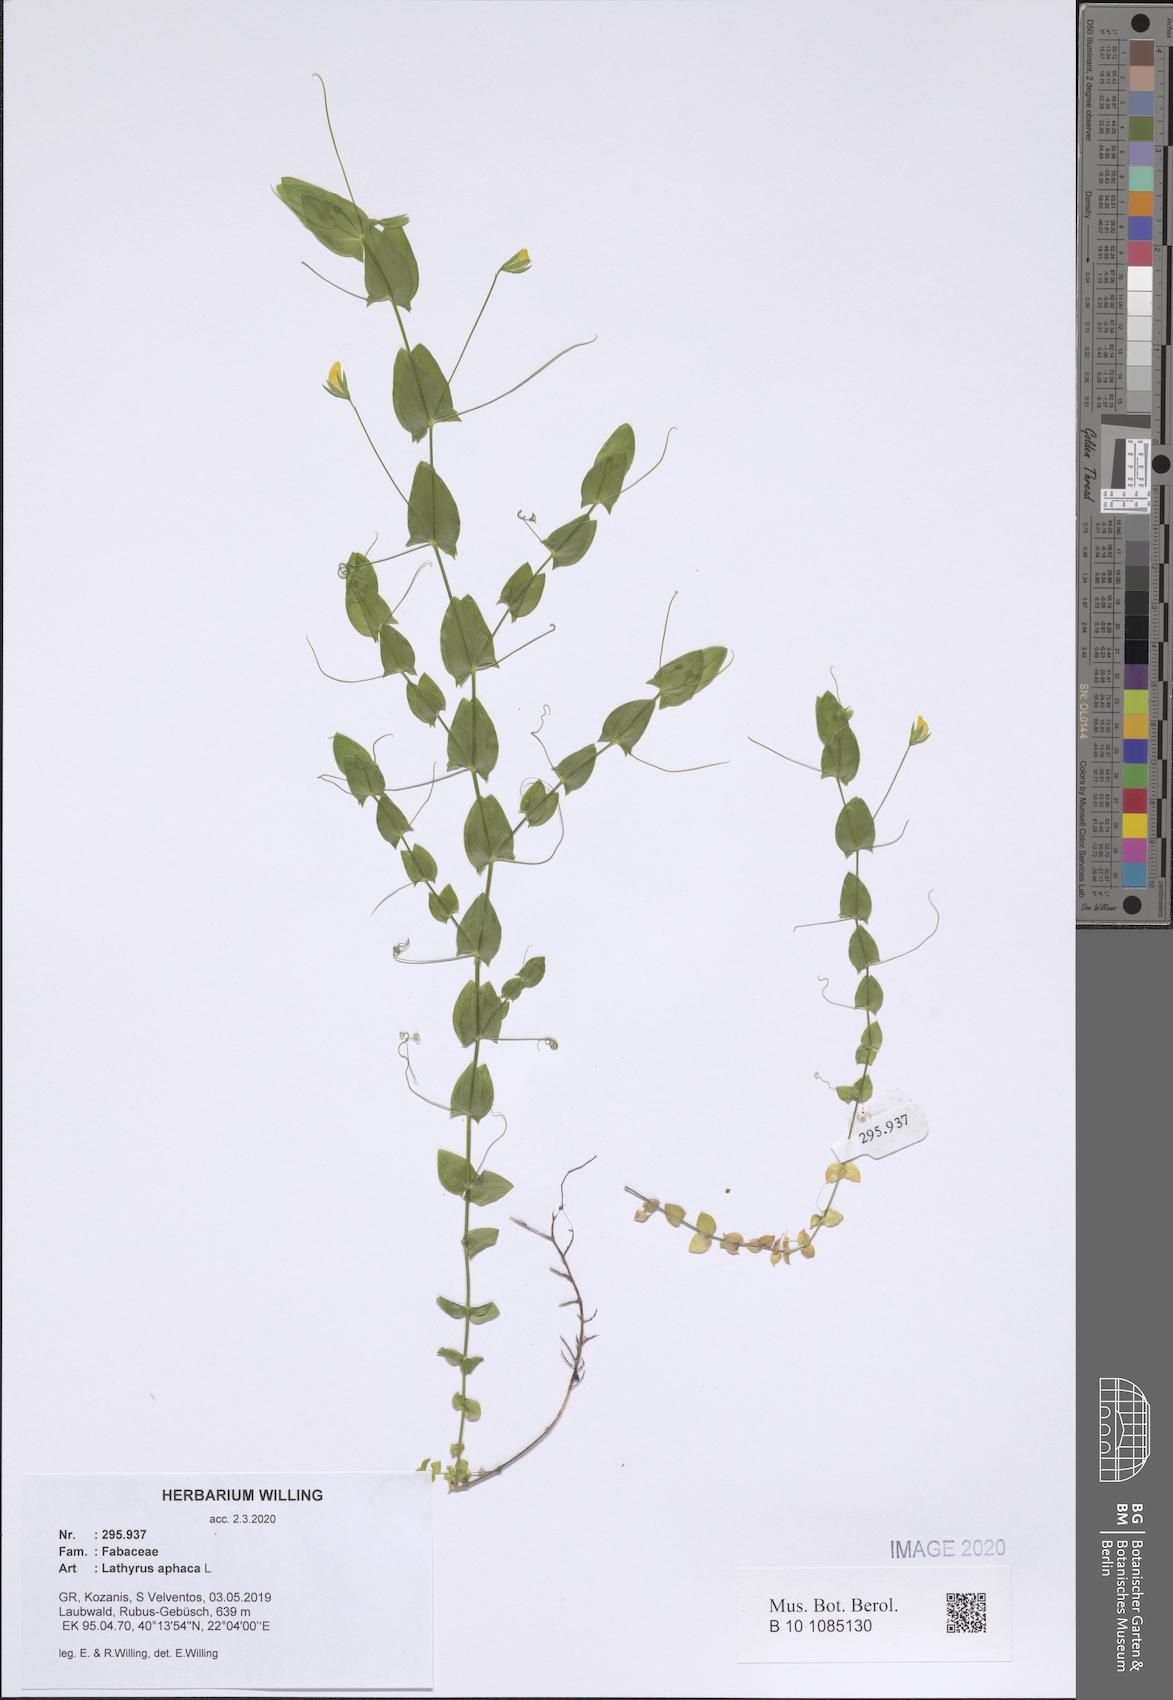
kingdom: Plantae
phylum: Tracheophyta
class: Magnoliopsida
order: Fabales
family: Fabaceae
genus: Lathyrus
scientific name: Lathyrus aphaca
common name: Yellow vetchling
